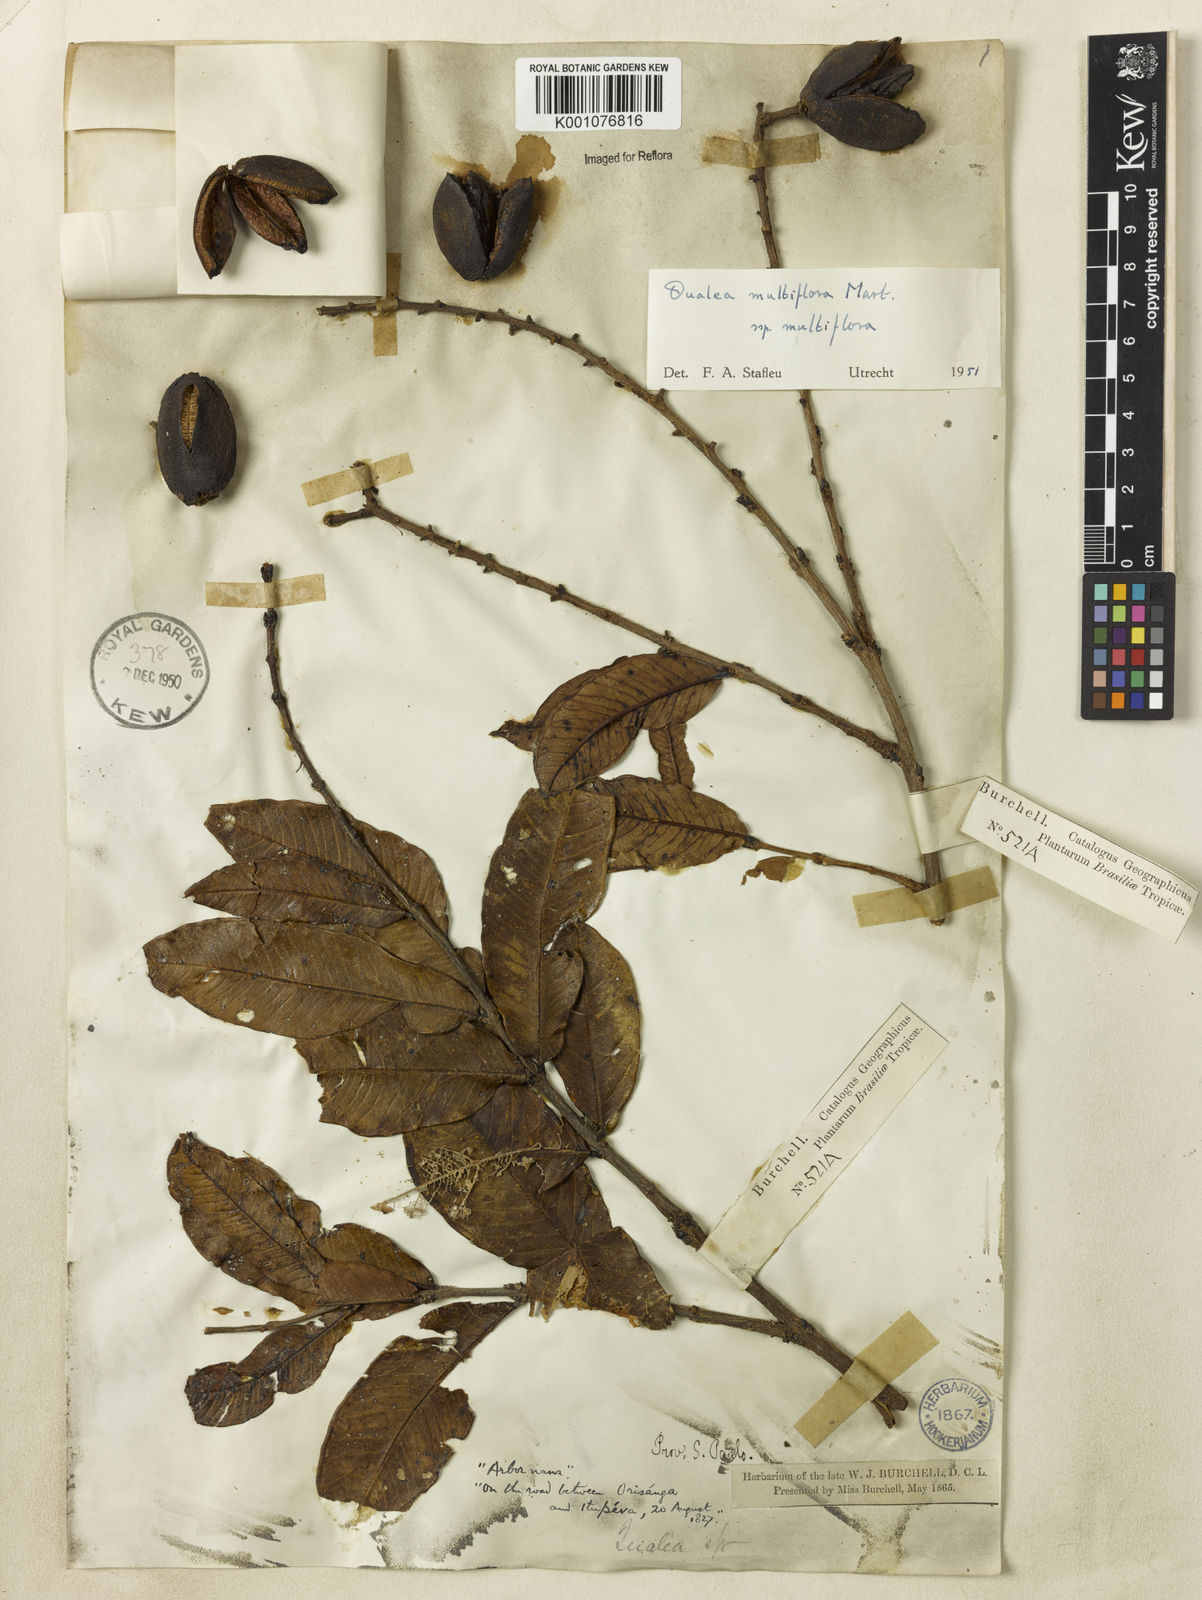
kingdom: Plantae
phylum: Tracheophyta
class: Magnoliopsida
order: Myrtales
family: Vochysiaceae
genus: Qualea
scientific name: Qualea multiflora
